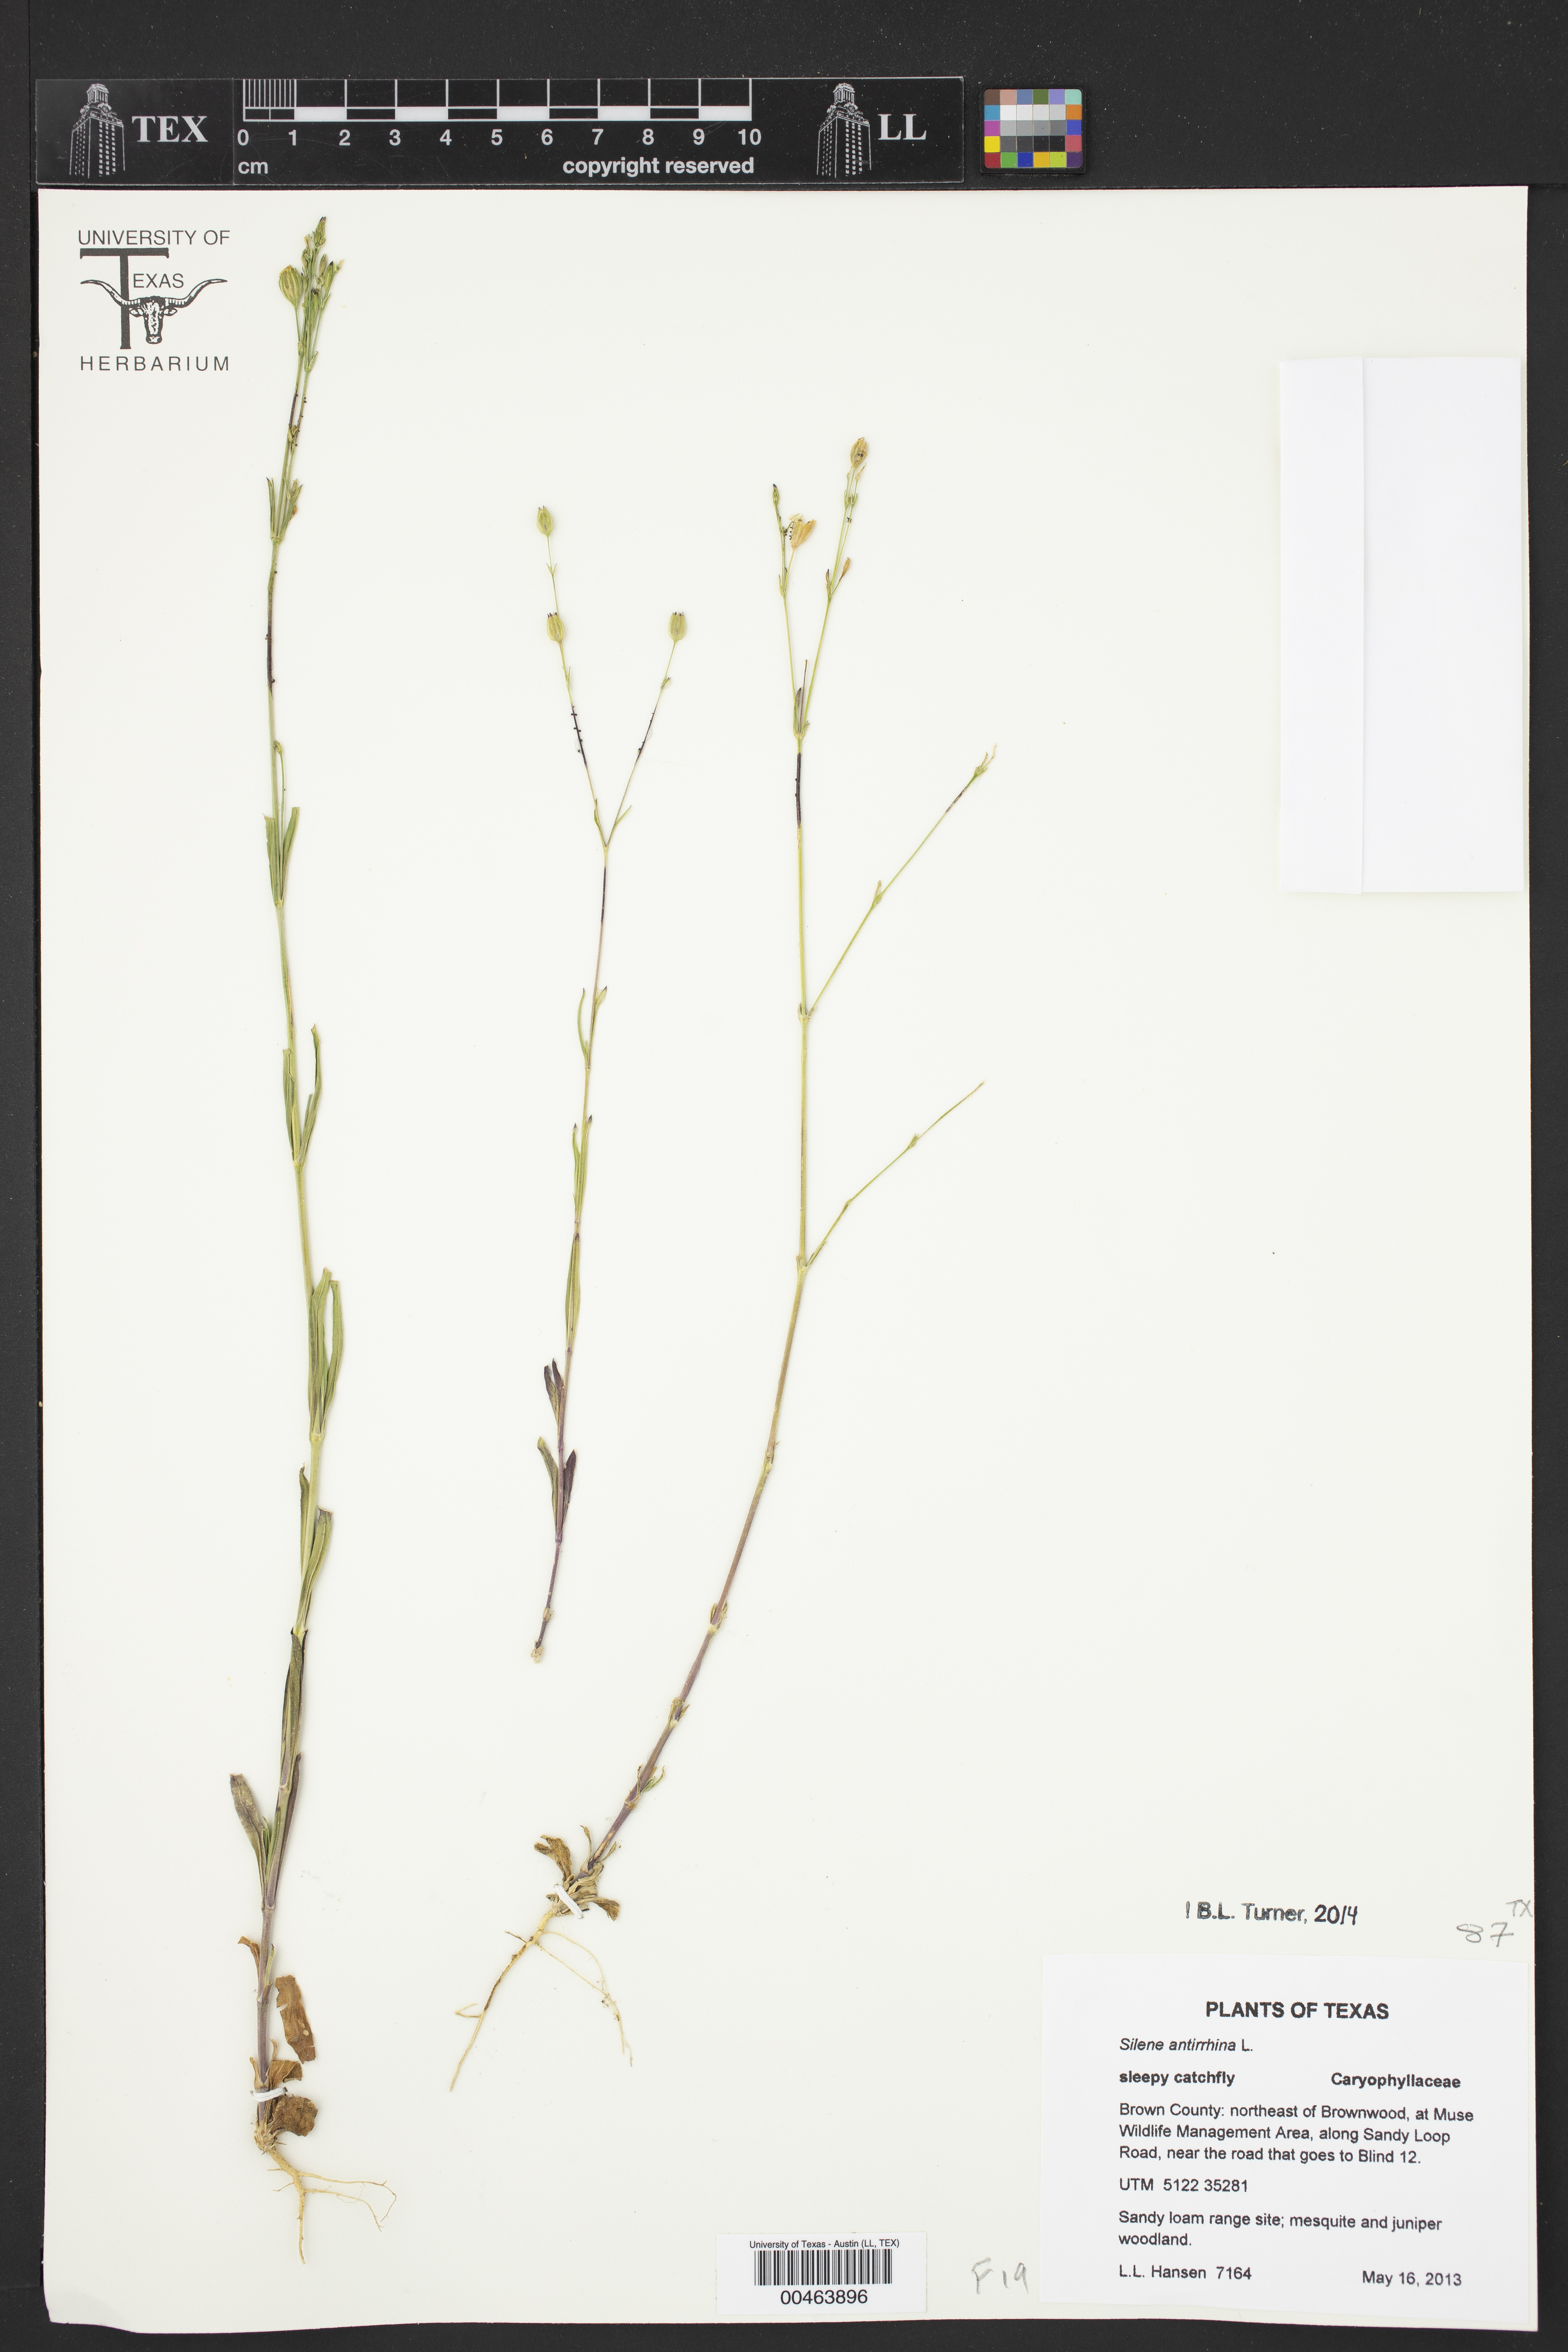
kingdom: Plantae
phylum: Tracheophyta
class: Magnoliopsida
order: Caryophyllales
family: Caryophyllaceae
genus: Silene
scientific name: Silene antirrhina
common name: Sleepy catchfly
